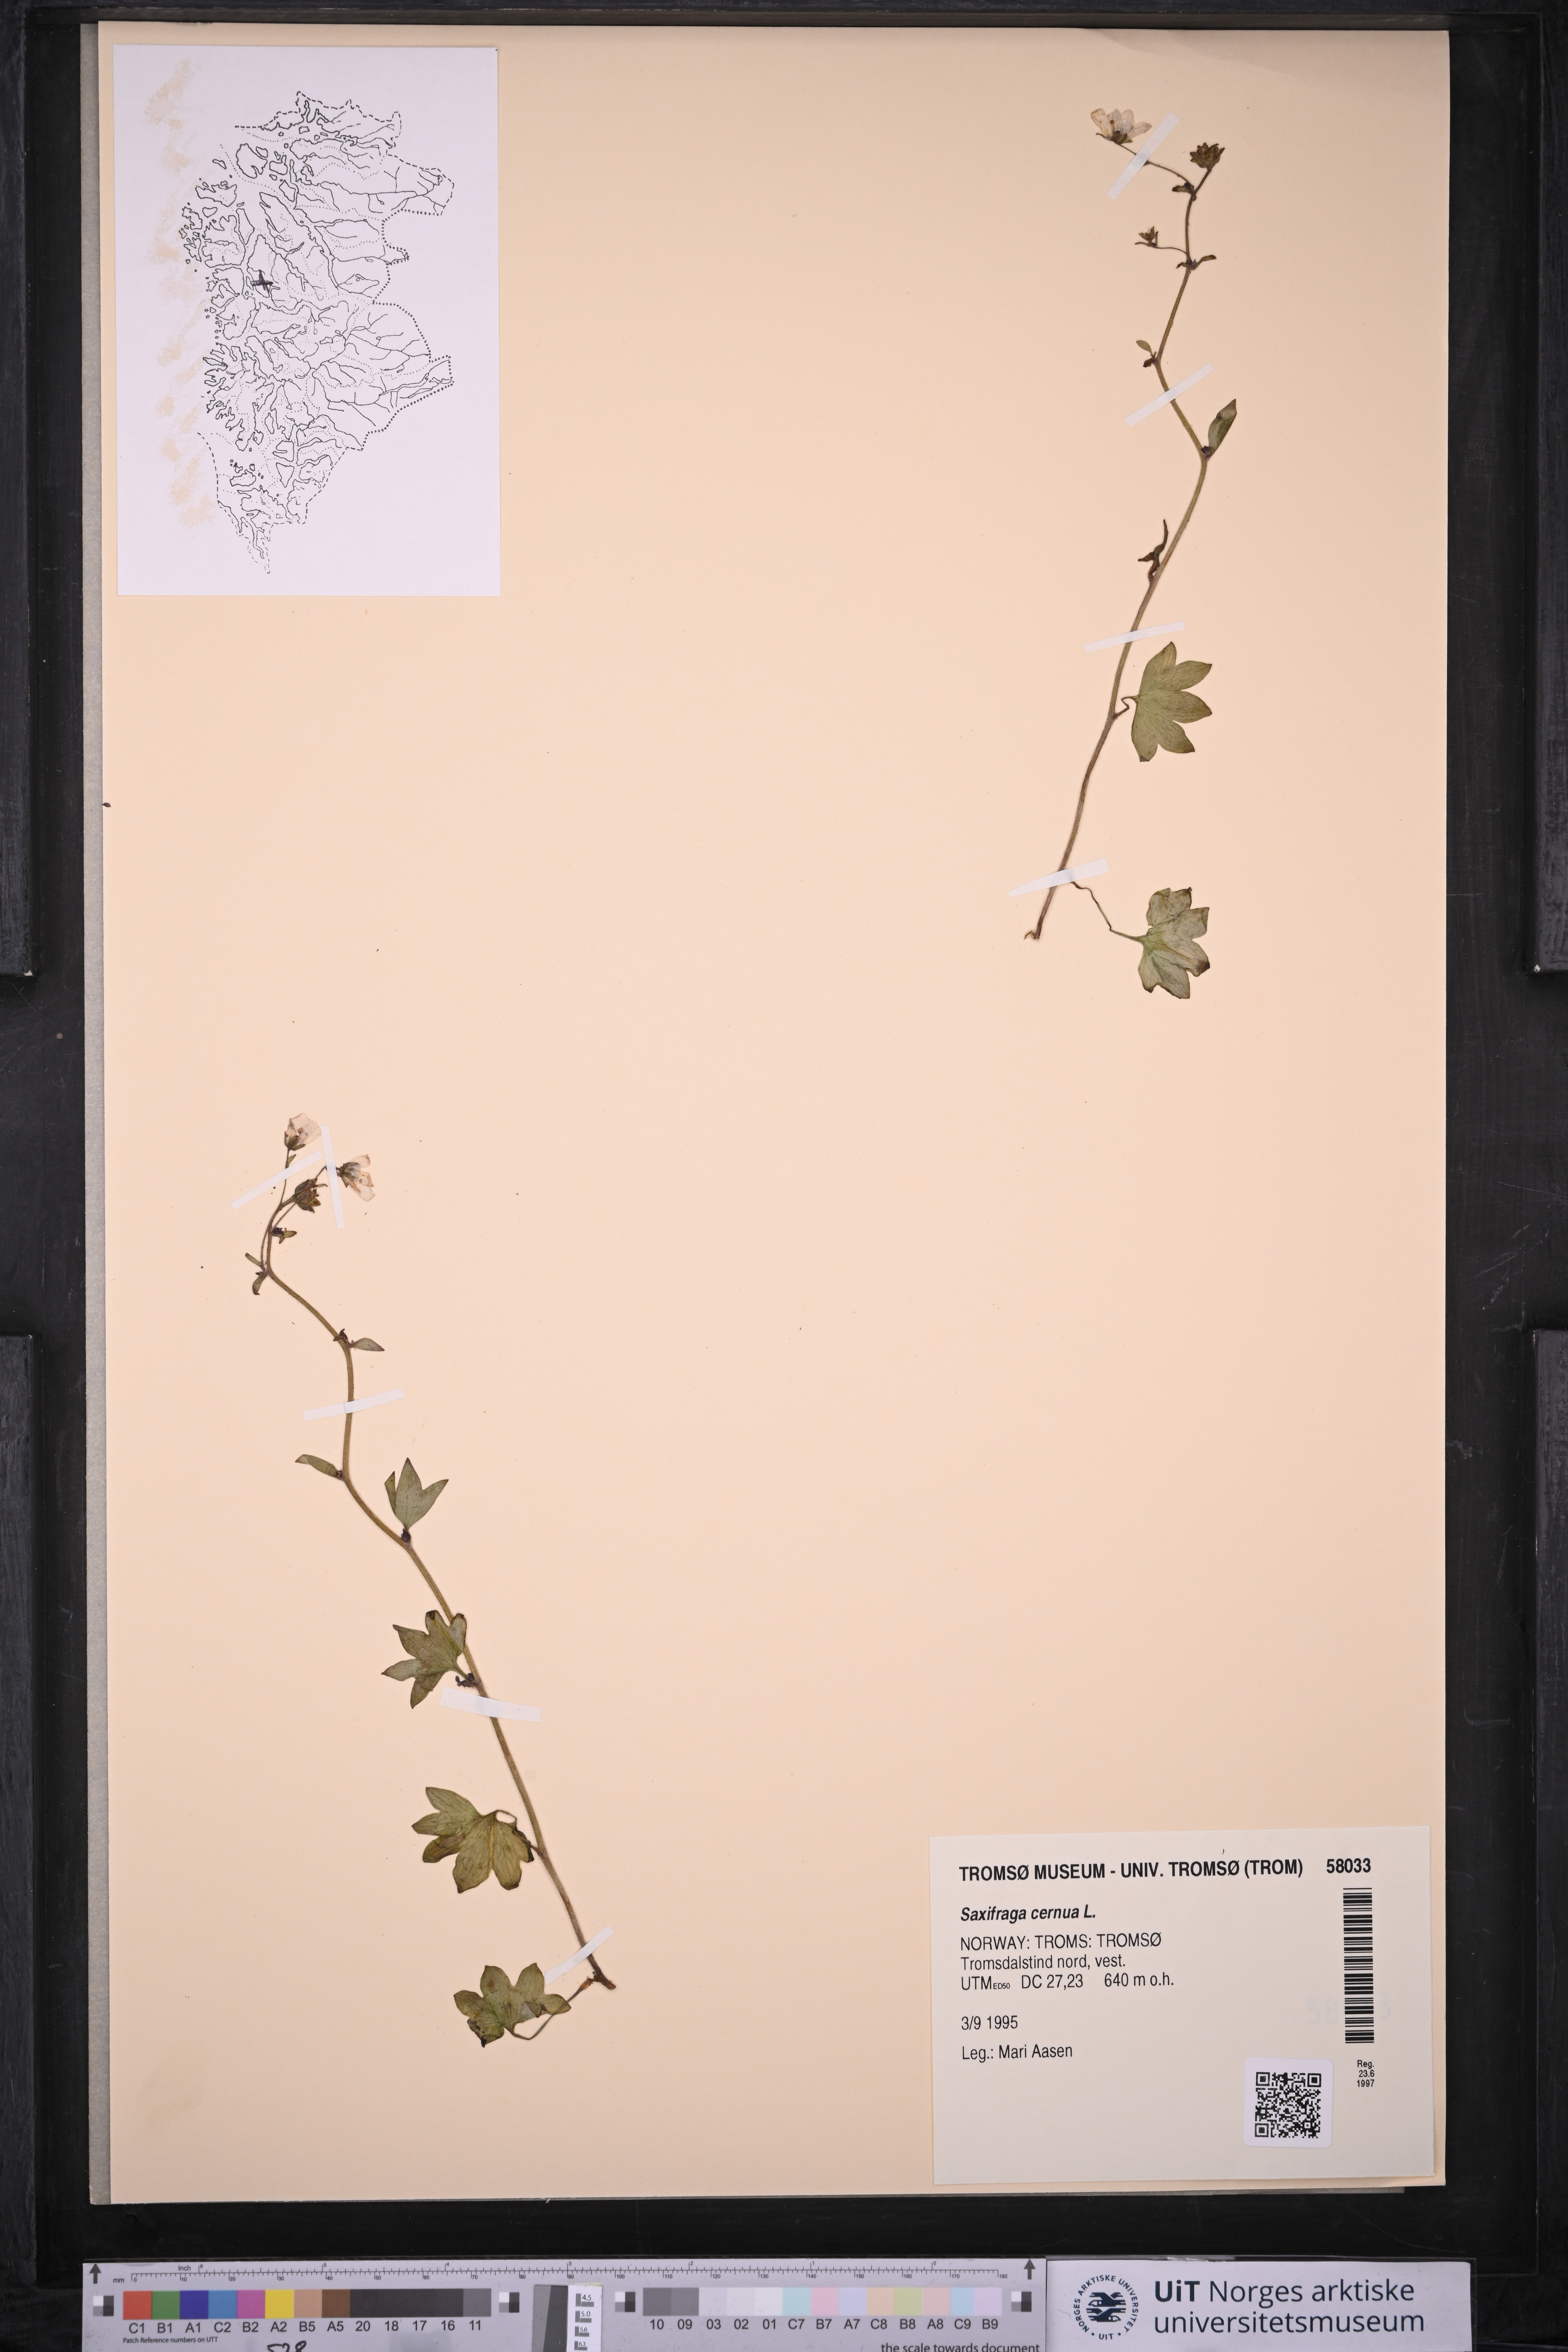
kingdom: Plantae
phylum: Tracheophyta
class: Magnoliopsida
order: Saxifragales
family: Saxifragaceae
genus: Saxifraga
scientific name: Saxifraga cernua
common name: Drooping saxifrage
